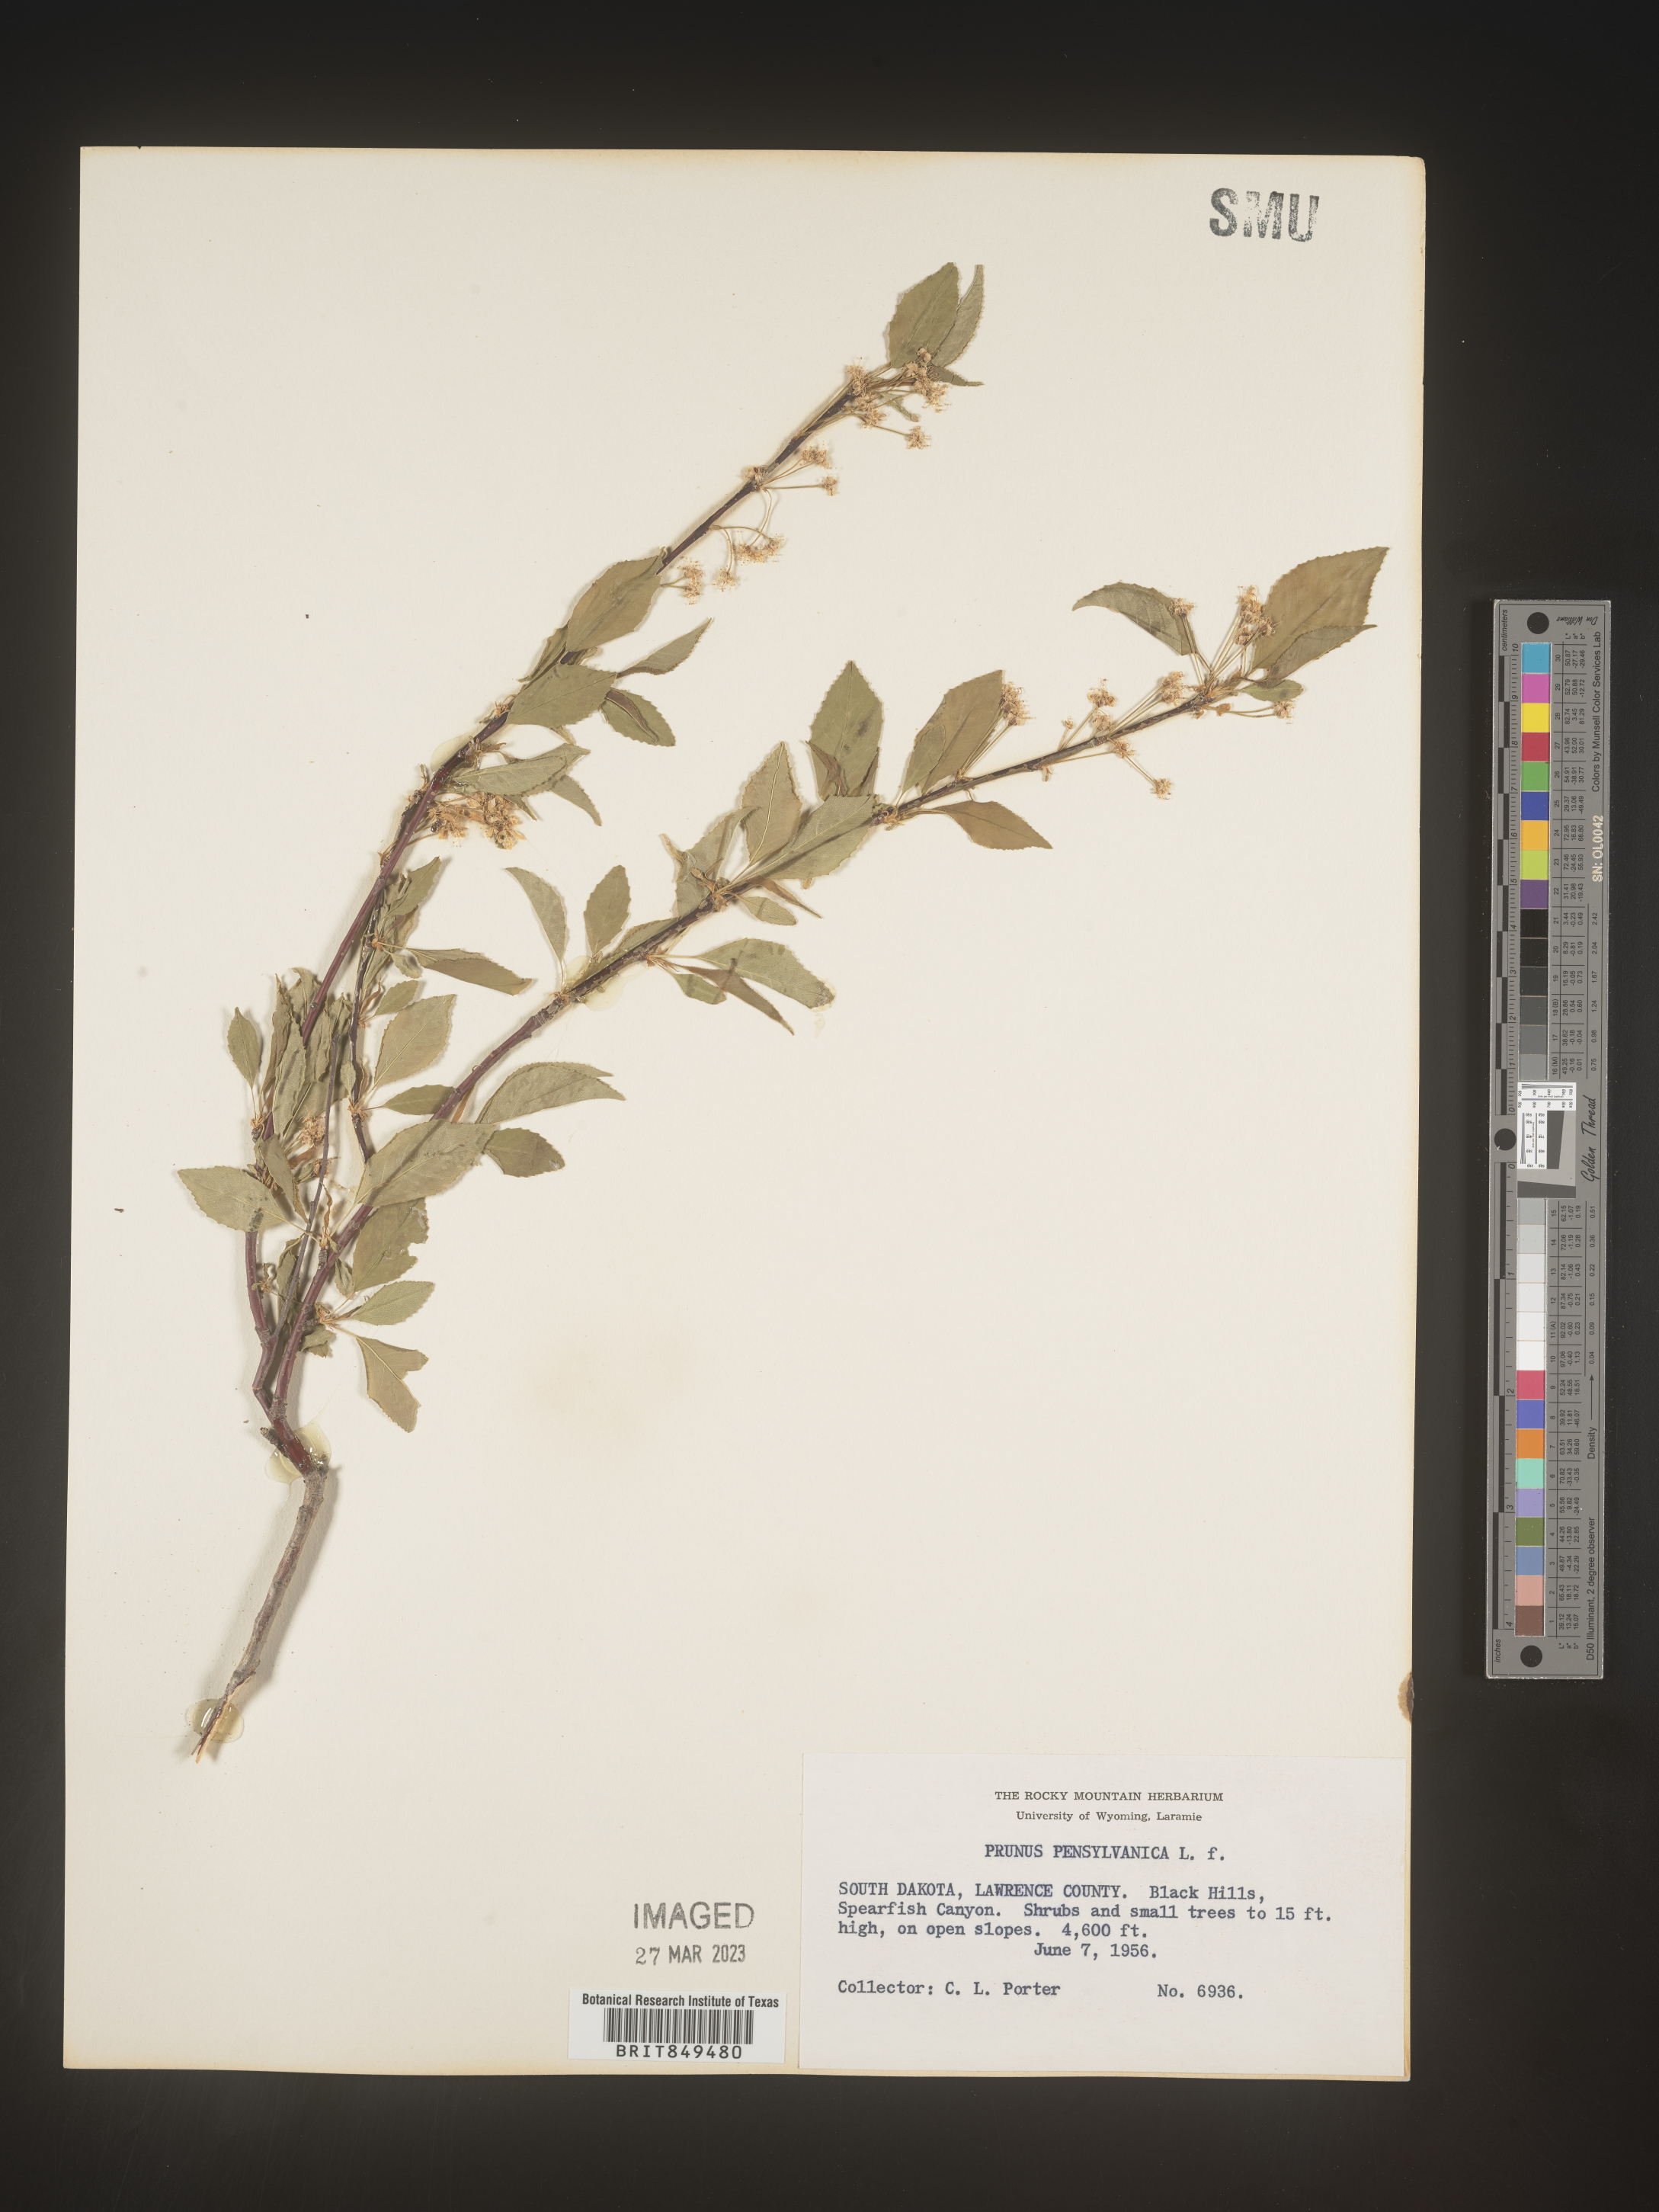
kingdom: Plantae
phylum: Tracheophyta
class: Magnoliopsida
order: Rosales
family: Rosaceae
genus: Prunus
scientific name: Prunus pensylvanica
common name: Pin cherry
